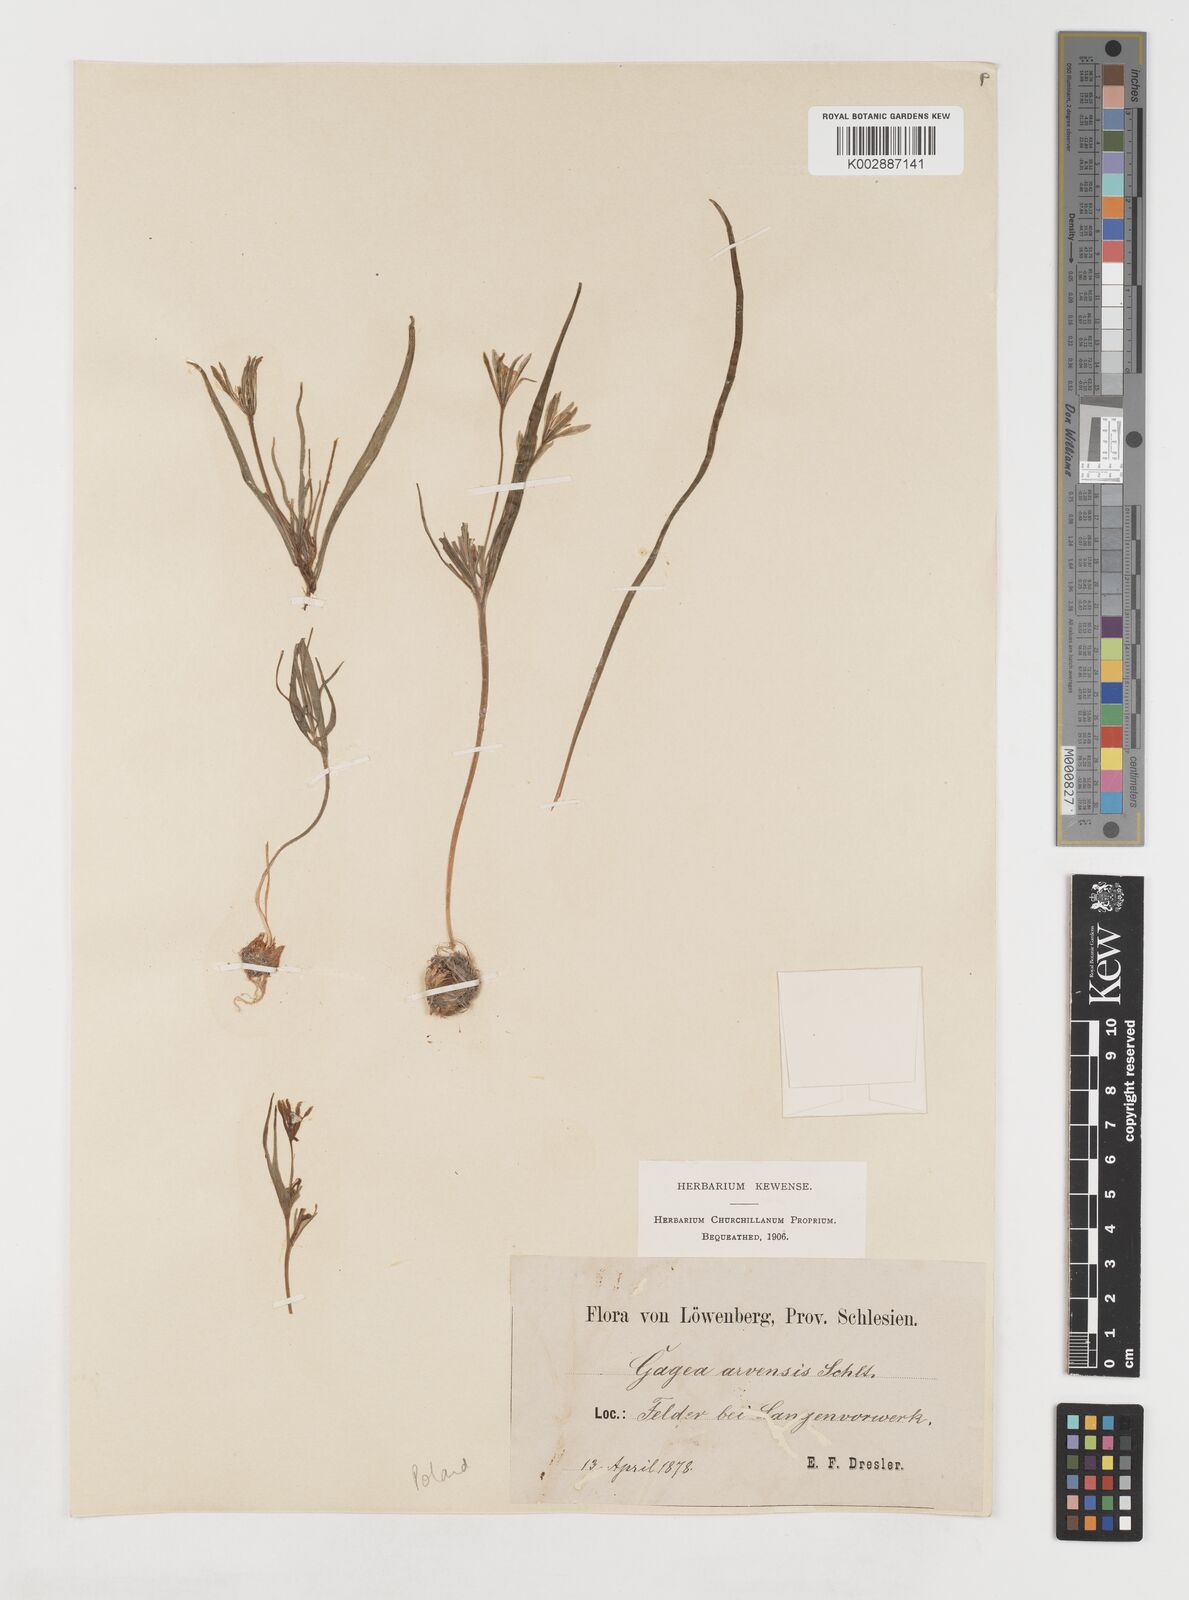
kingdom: Plantae
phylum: Tracheophyta
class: Liliopsida
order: Liliales
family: Liliaceae
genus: Gagea
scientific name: Gagea minima
